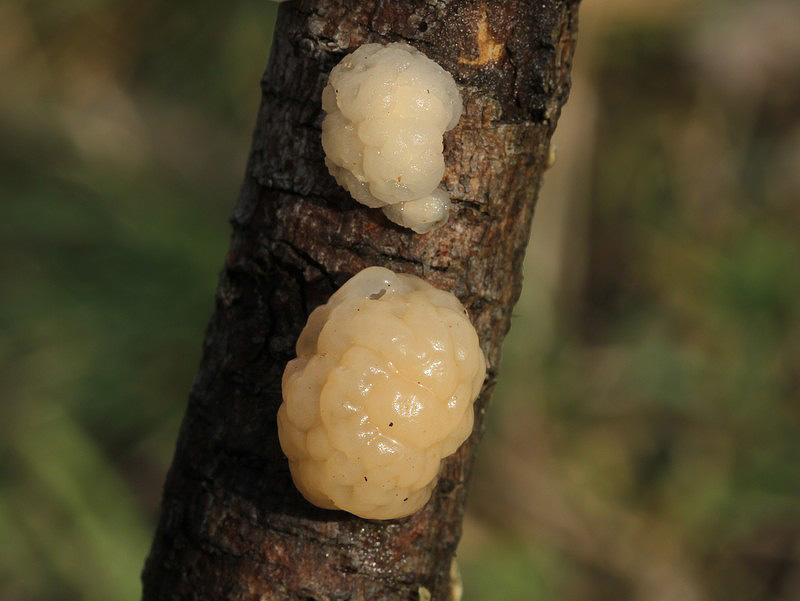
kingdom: Fungi
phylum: Basidiomycota
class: Tremellomycetes
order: Tremellales
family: Naemateliaceae
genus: Naematelia
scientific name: Naematelia encephala
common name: fyrre-bævresvamp
